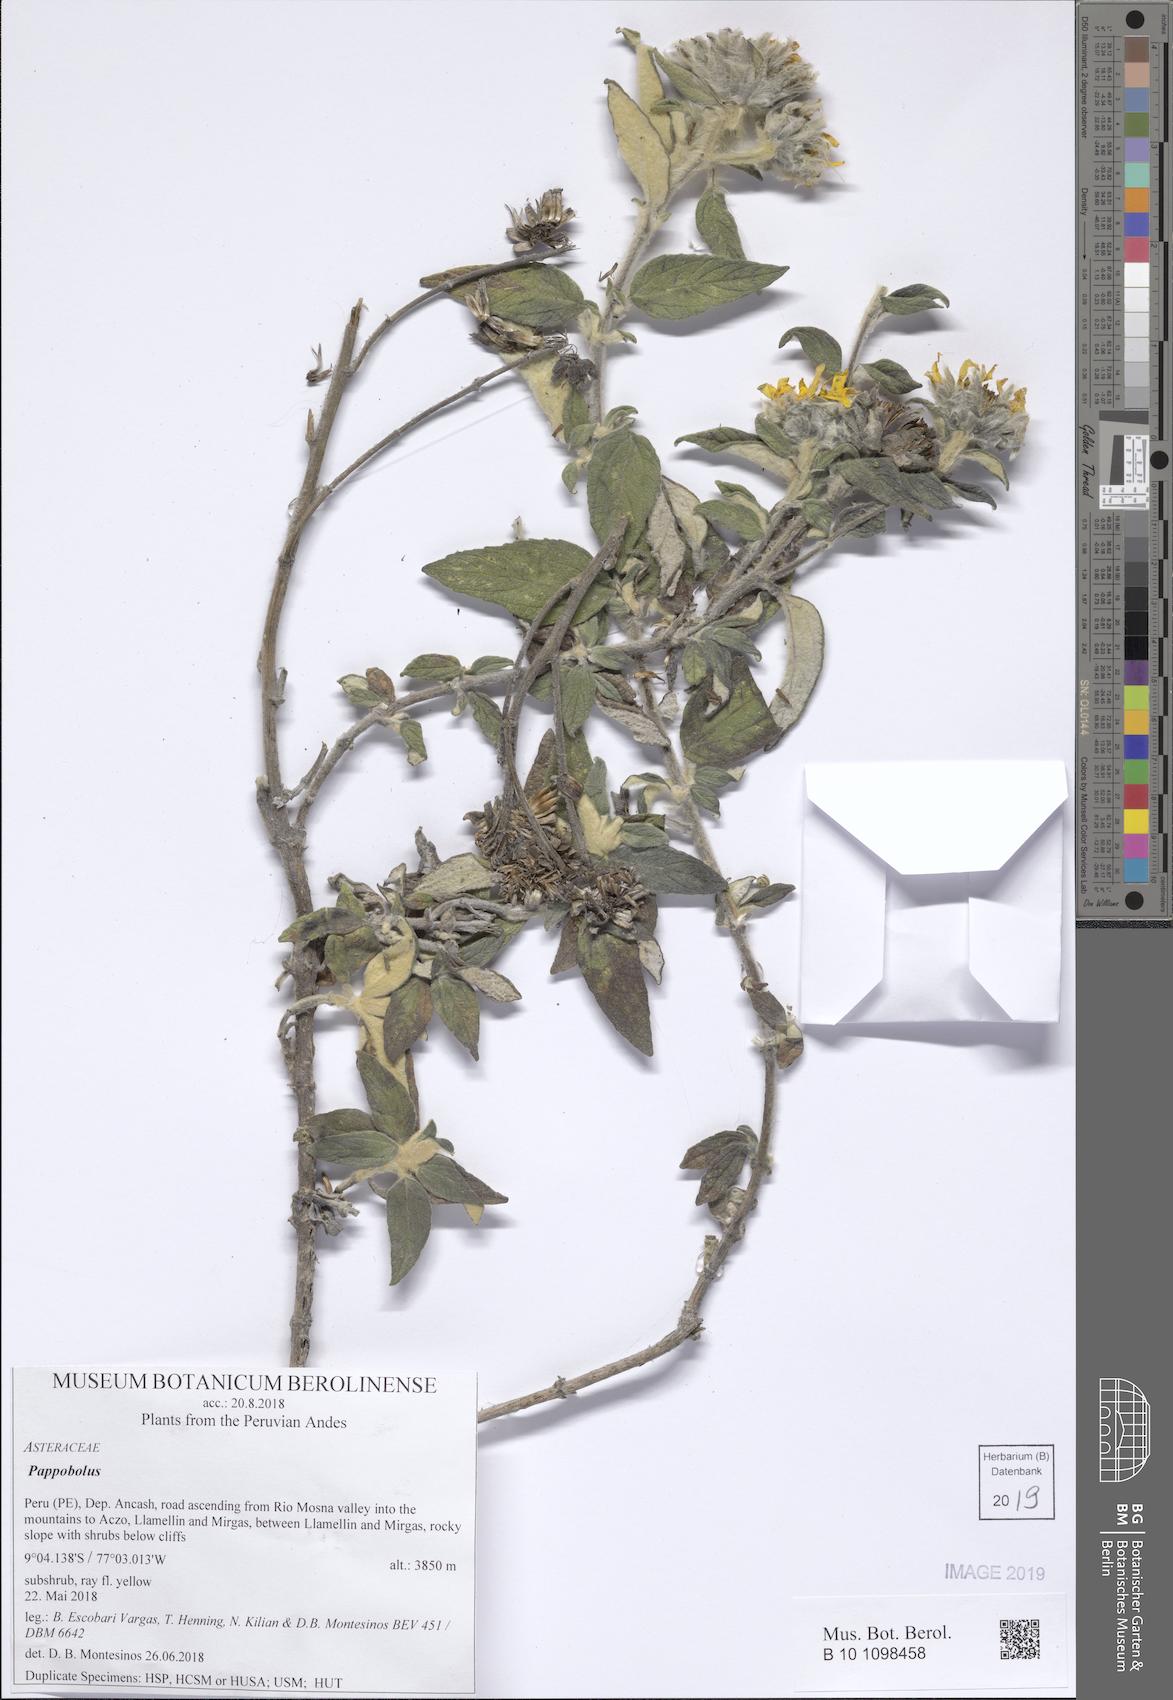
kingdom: Plantae
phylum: Tracheophyta
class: Magnoliopsida
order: Asterales
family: Asteraceae
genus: Pappobolus
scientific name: Pappobolus stuebelii
